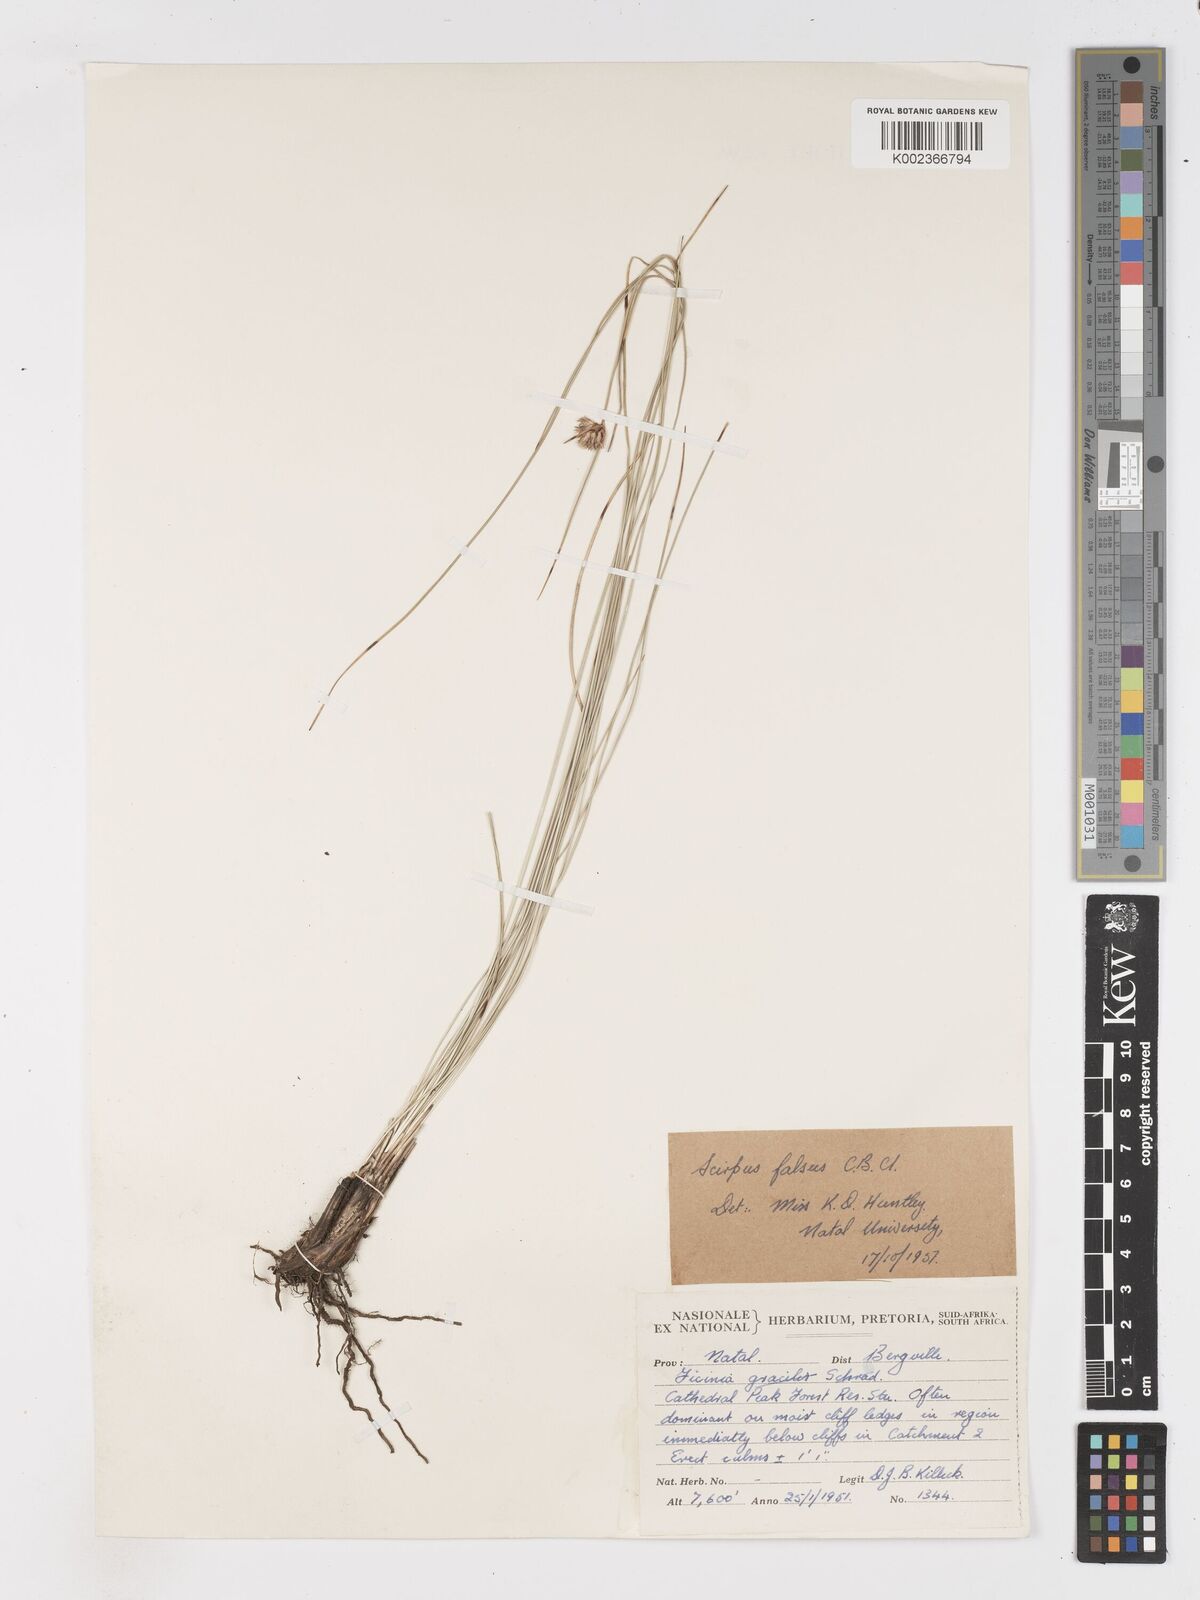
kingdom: Plantae
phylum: Tracheophyta
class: Liliopsida
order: Poales
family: Cyperaceae
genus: Dracoscirpoides
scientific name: Dracoscirpoides falsa
